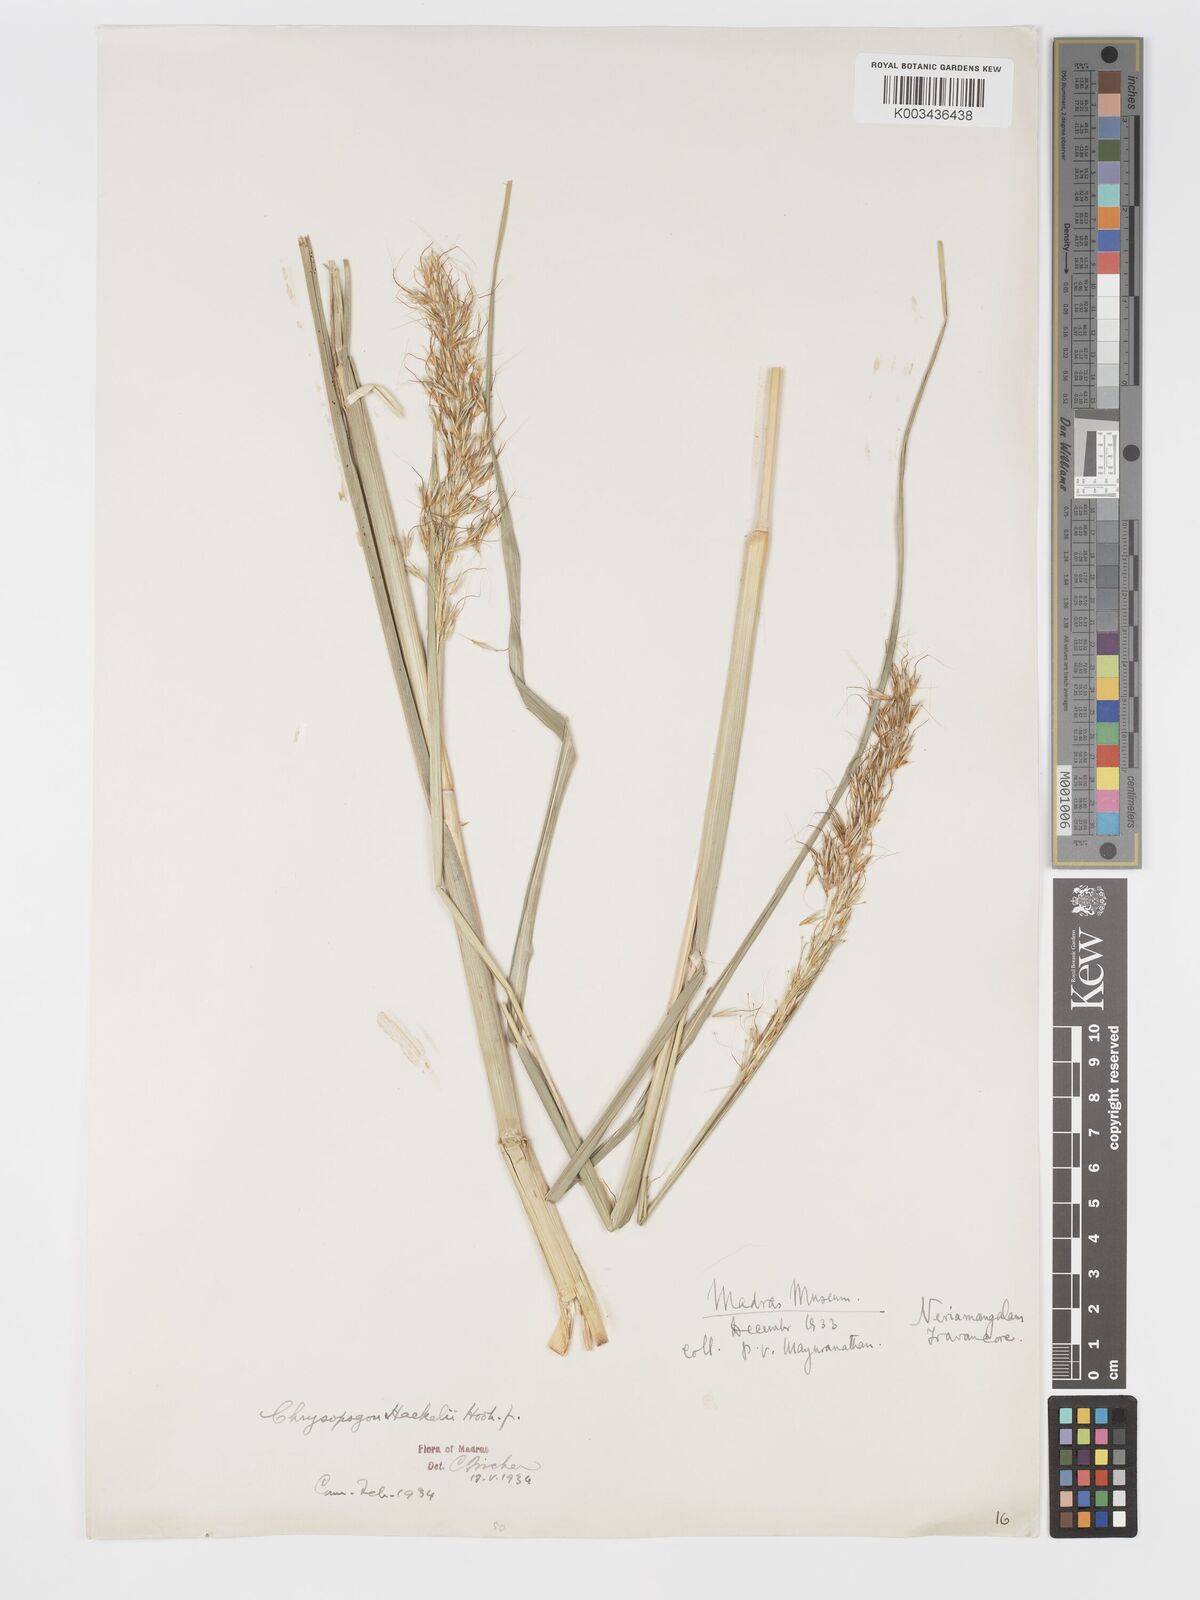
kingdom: Plantae
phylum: Tracheophyta
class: Liliopsida
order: Poales
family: Poaceae
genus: Chrysopogon
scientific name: Chrysopogon hackelii
